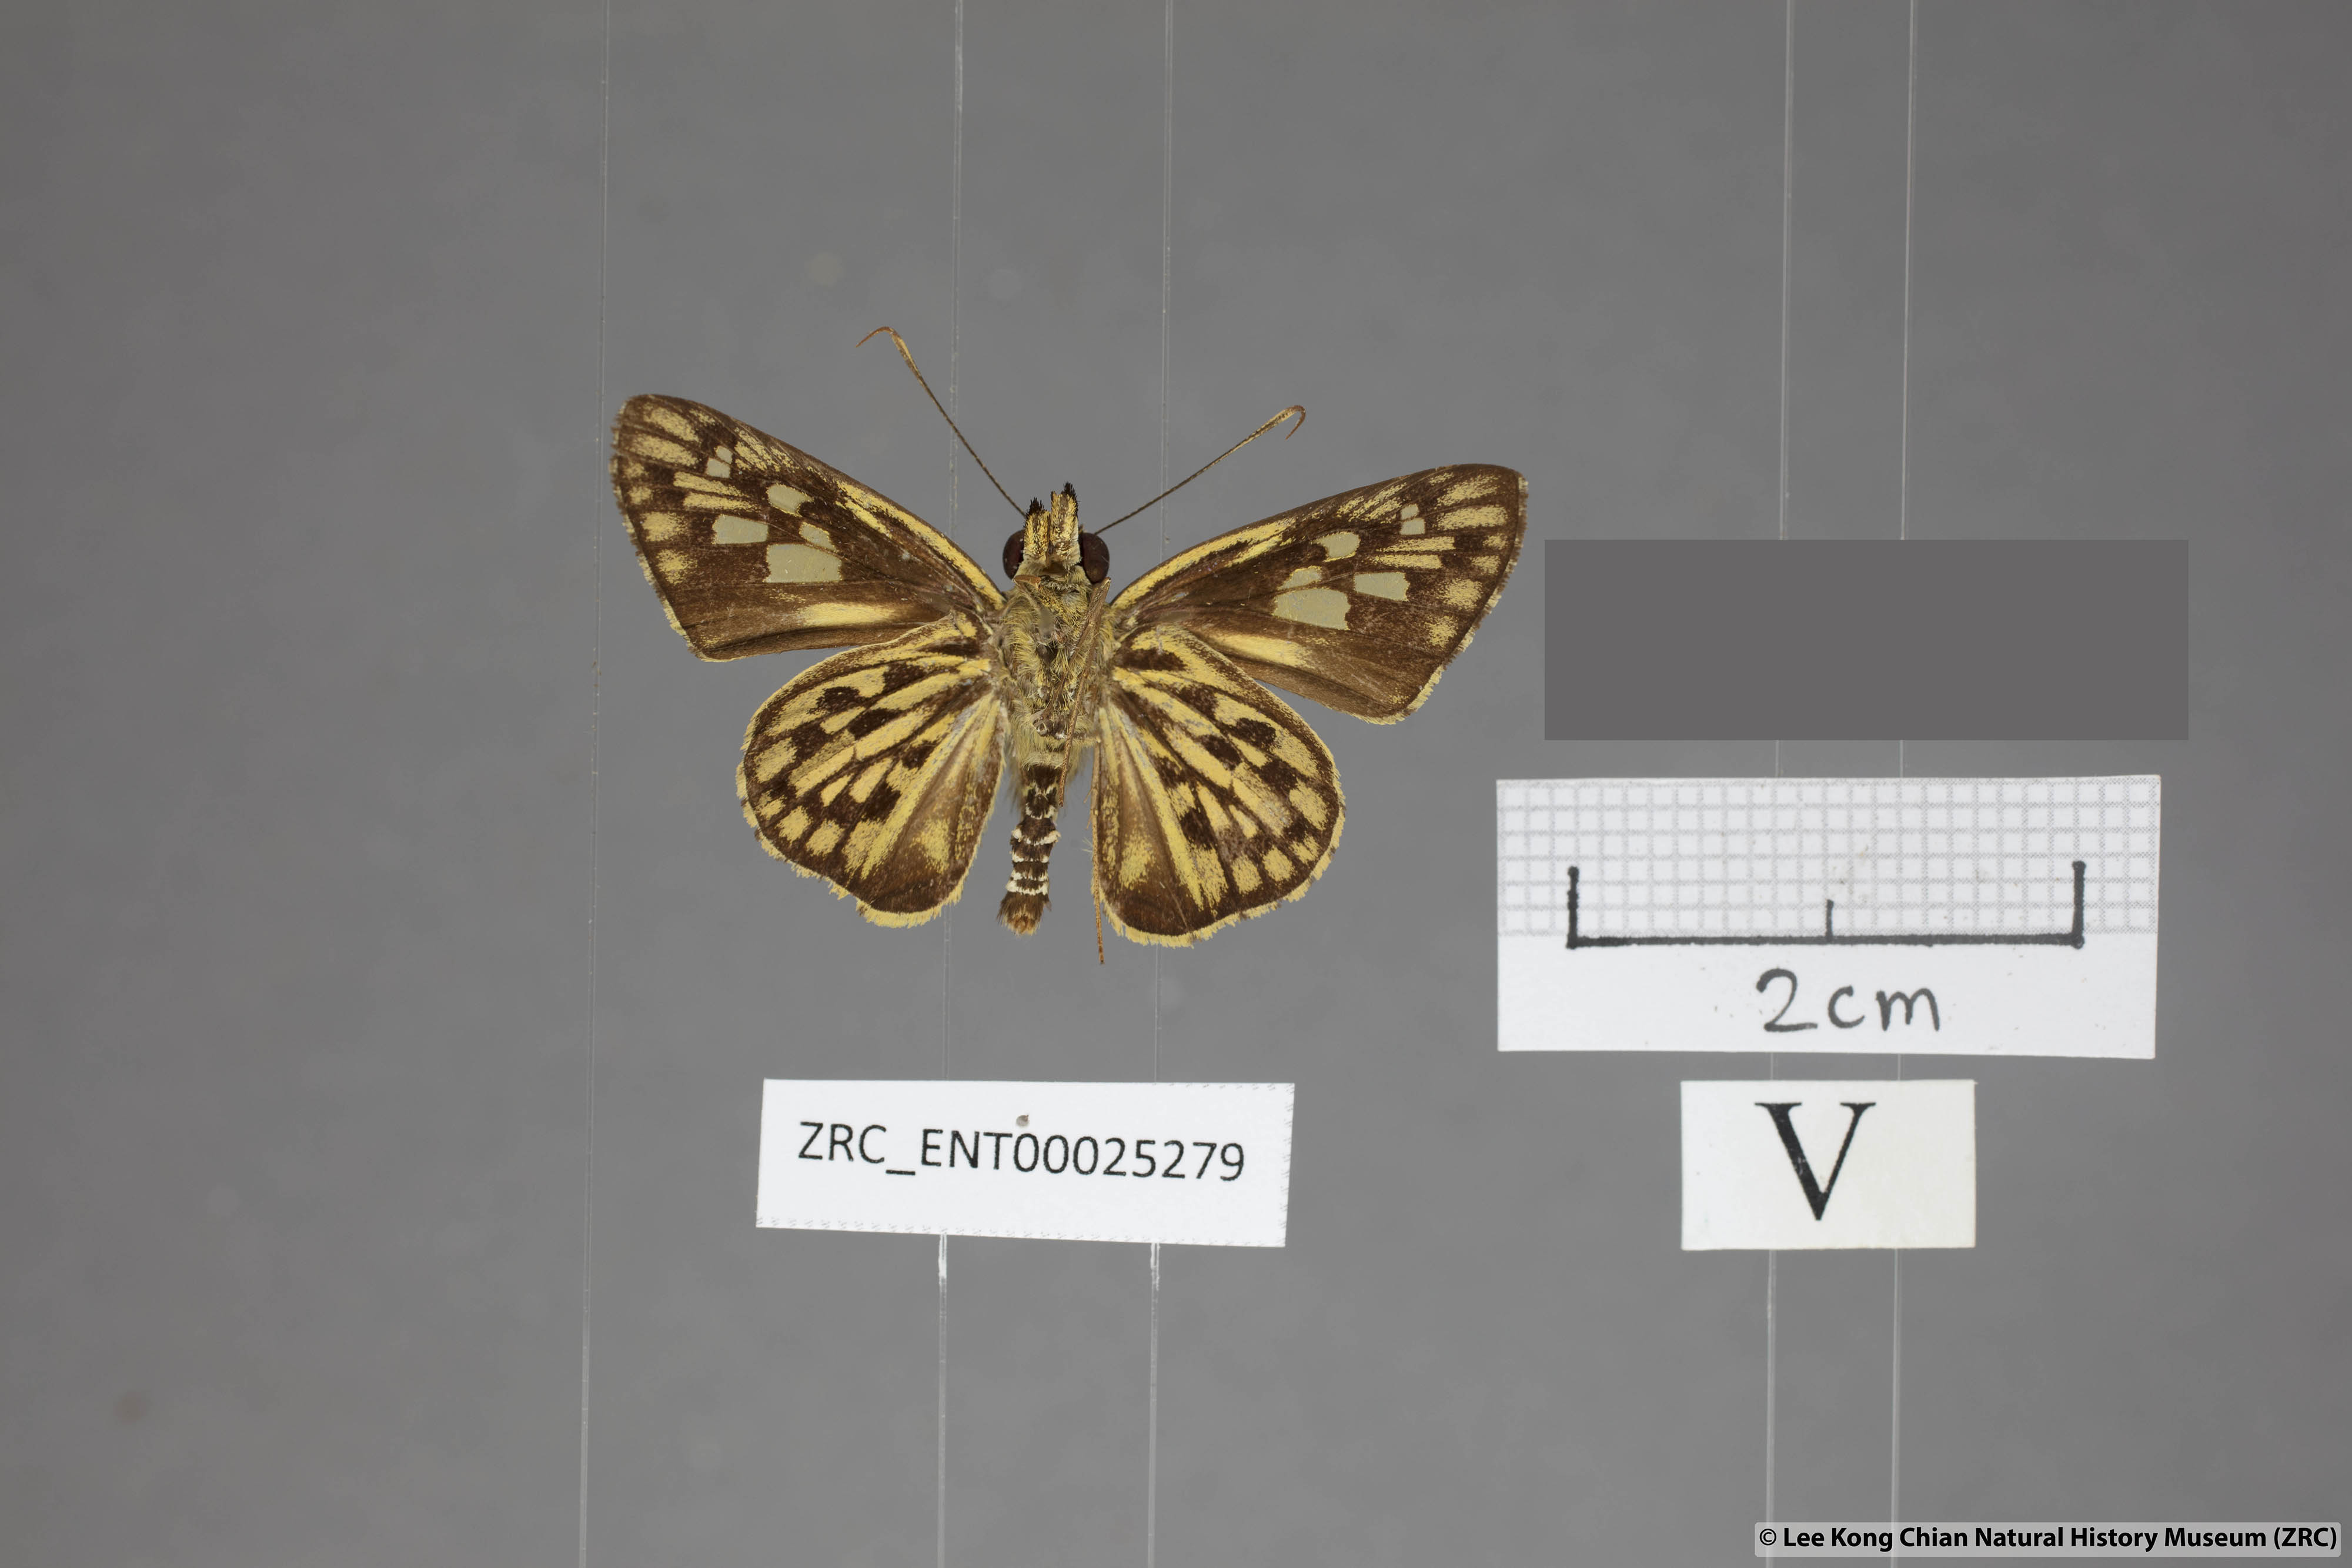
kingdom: Animalia
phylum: Arthropoda
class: Insecta
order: Lepidoptera
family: Hesperiidae
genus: Plastingia
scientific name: Plastingia pellonia
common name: Yellow chequered lancer
